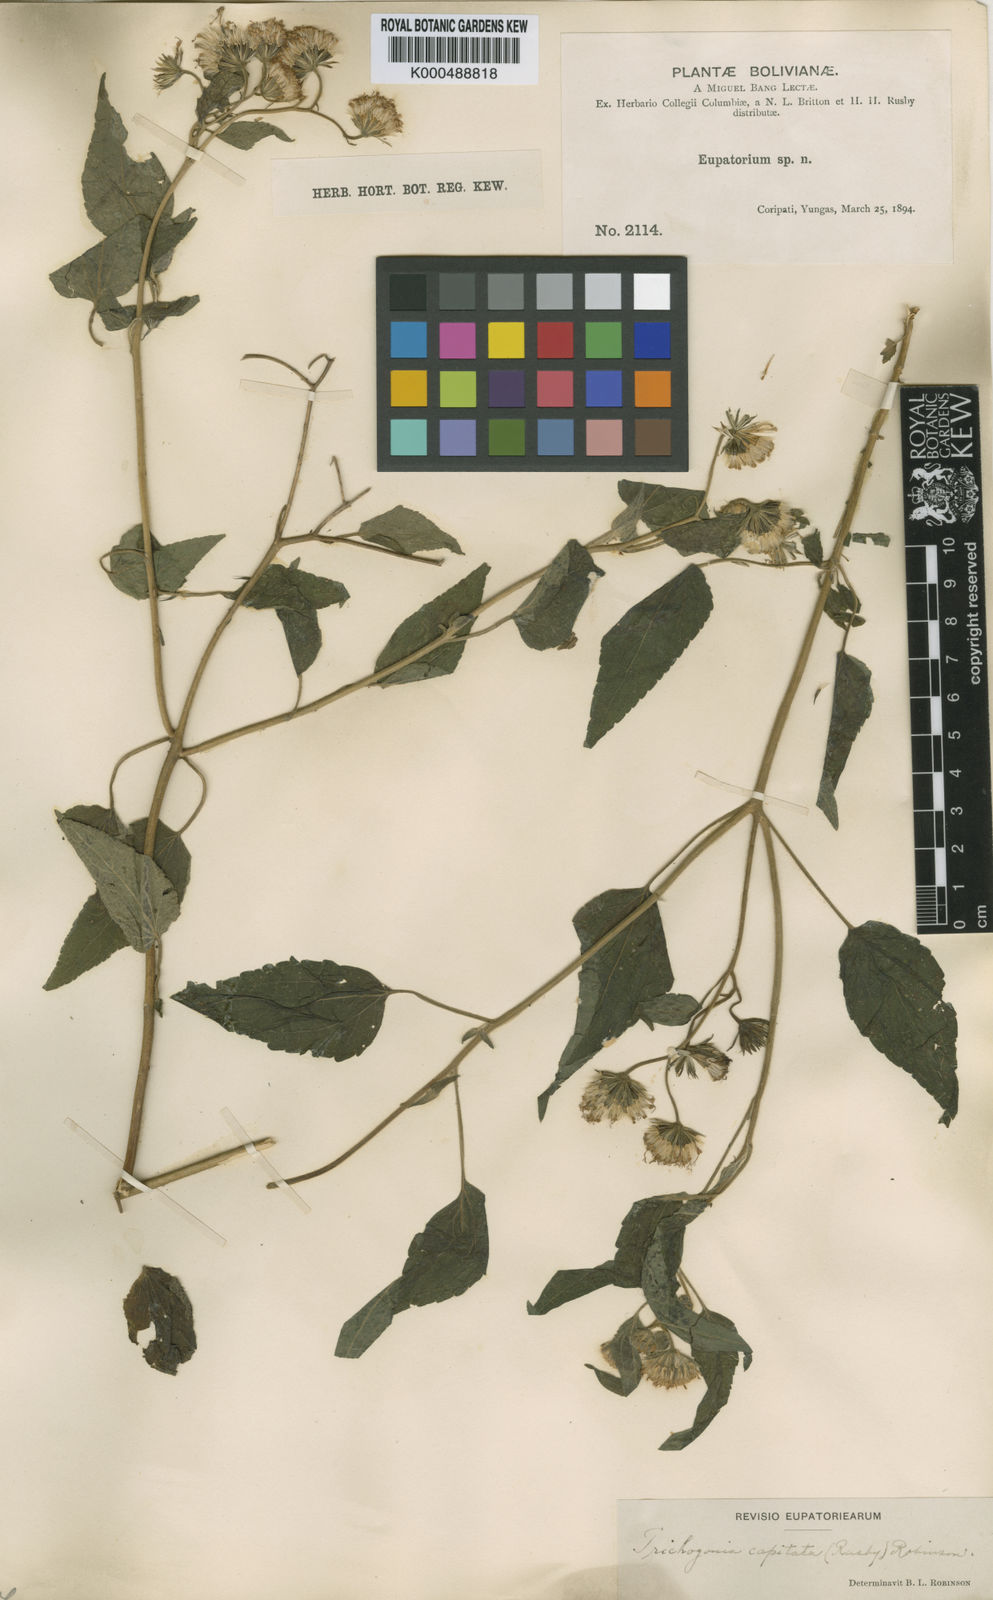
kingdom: Plantae
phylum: Tracheophyta
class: Magnoliopsida
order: Asterales
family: Asteraceae
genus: Trichogonia
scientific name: Trichogonia capitata
